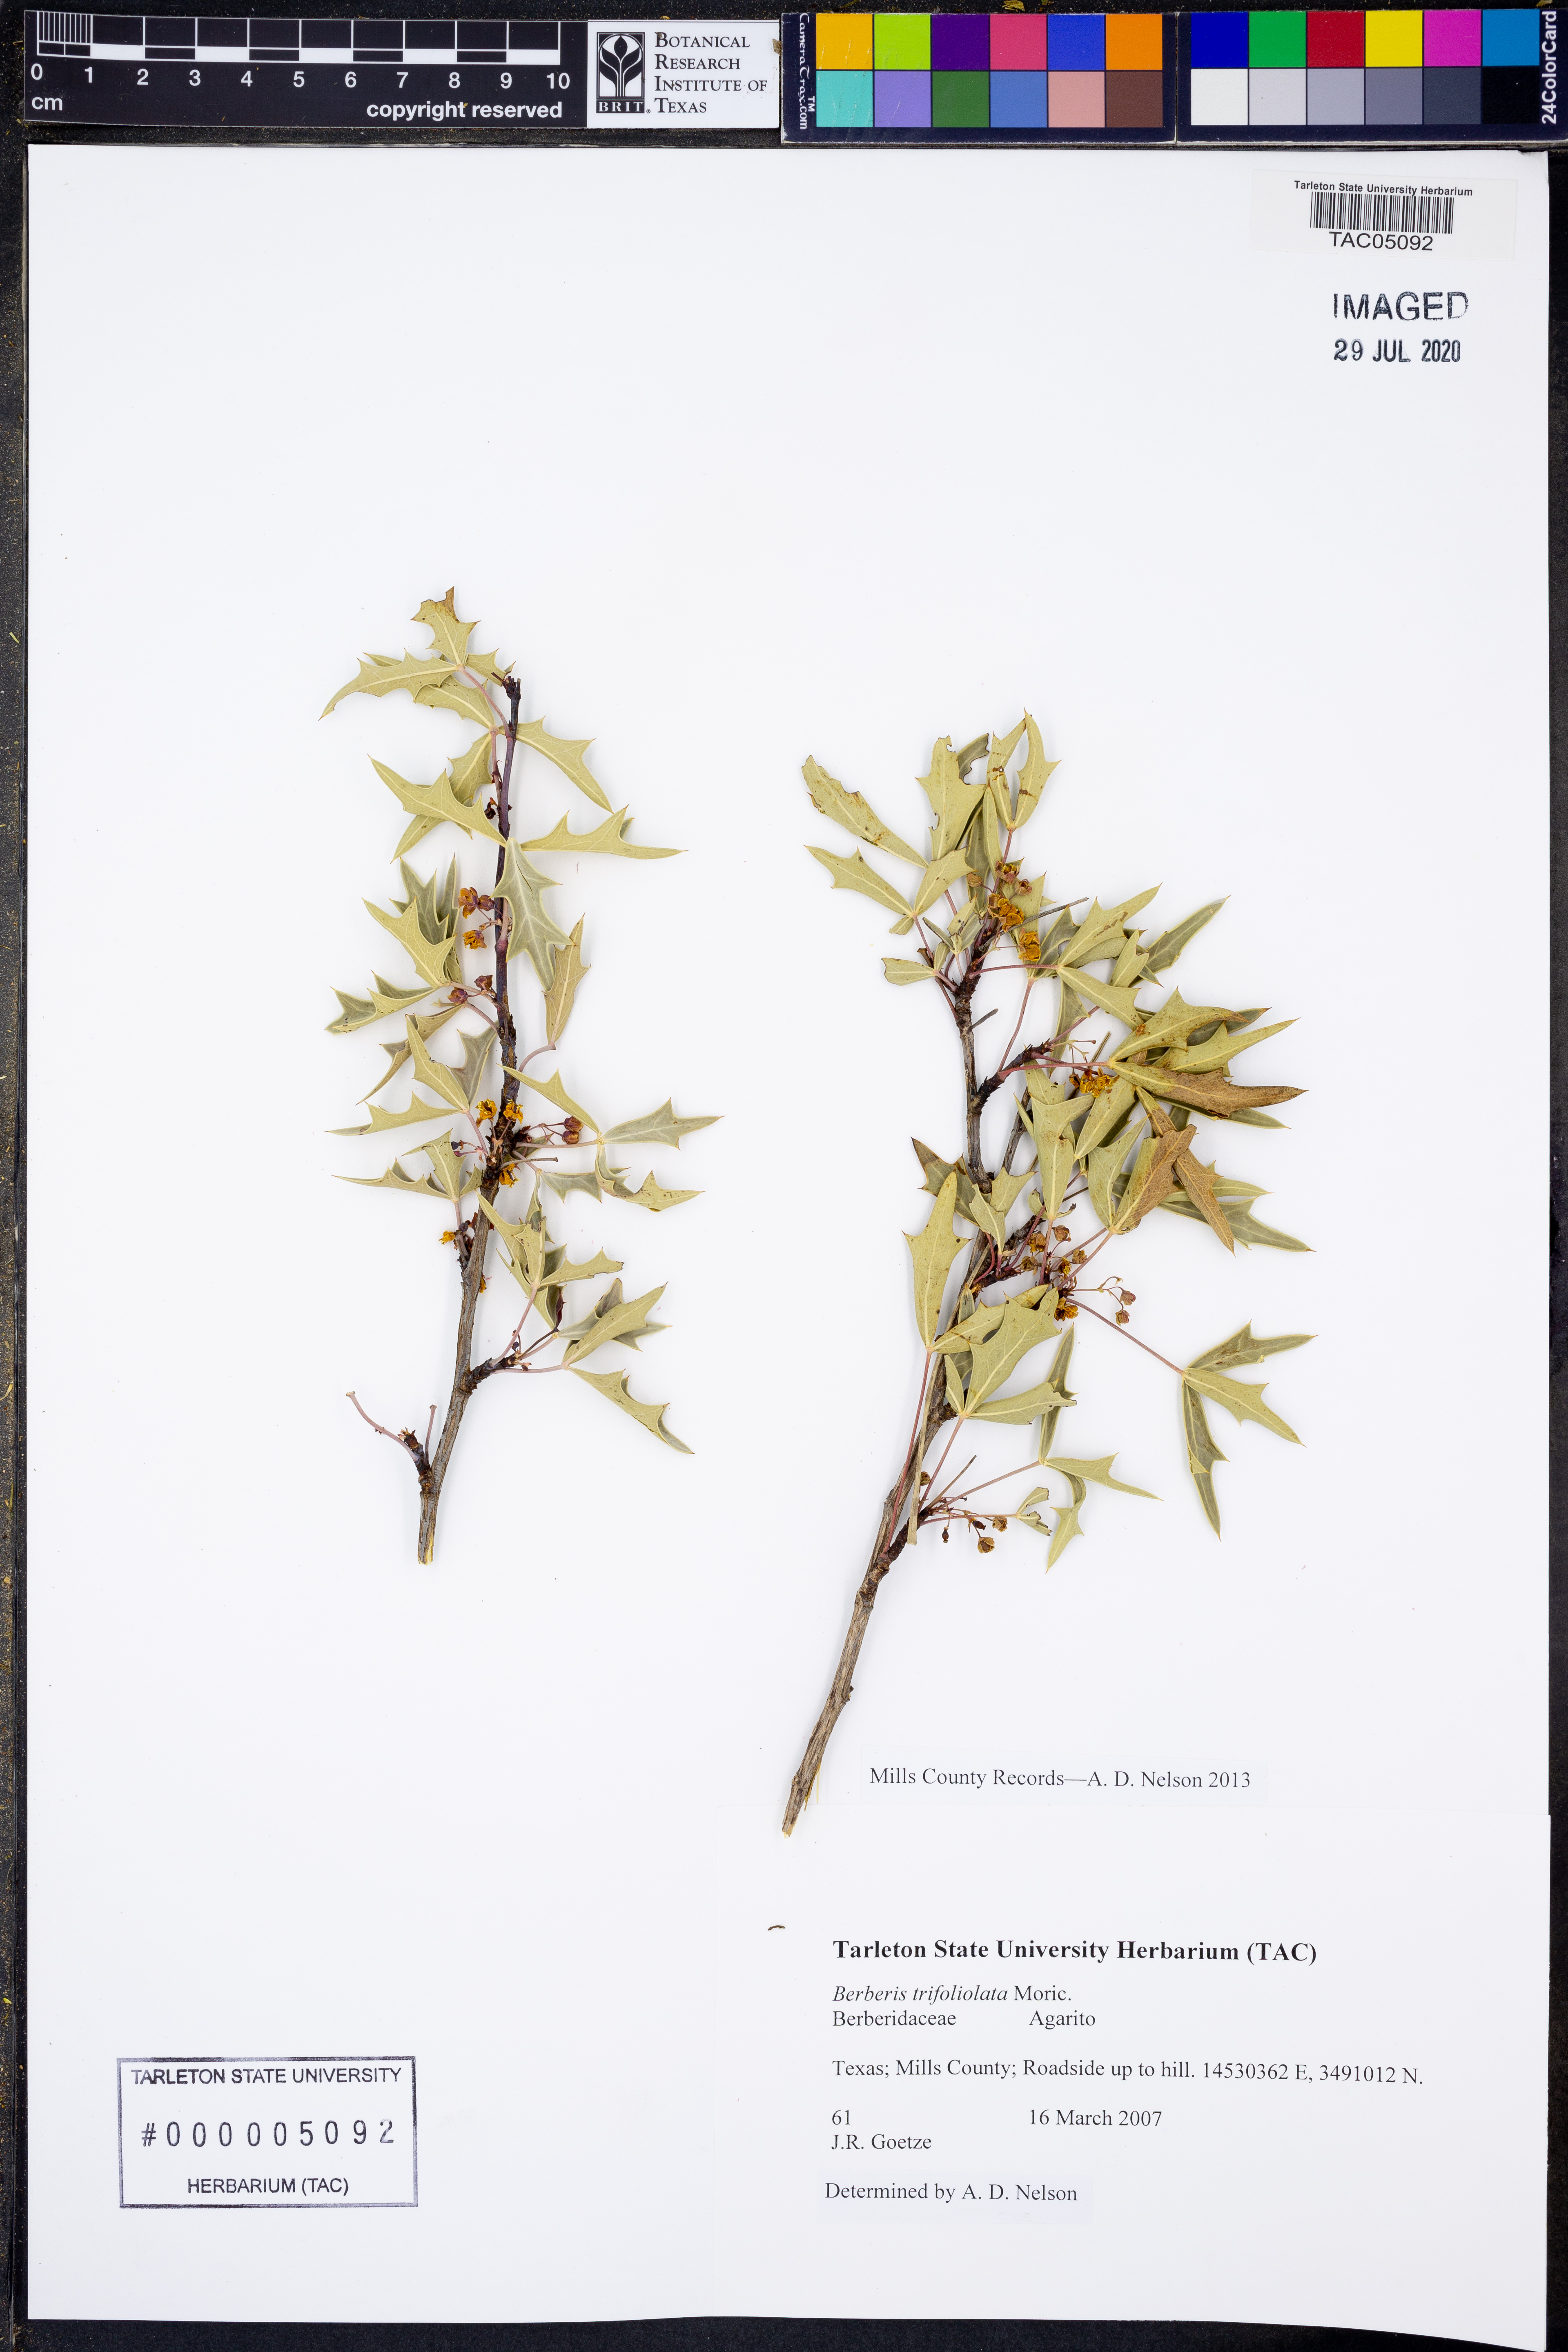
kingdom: Plantae
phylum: Tracheophyta
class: Magnoliopsida
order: Ranunculales
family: Berberidaceae
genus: Alloberberis
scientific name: Alloberberis trifoliolata
